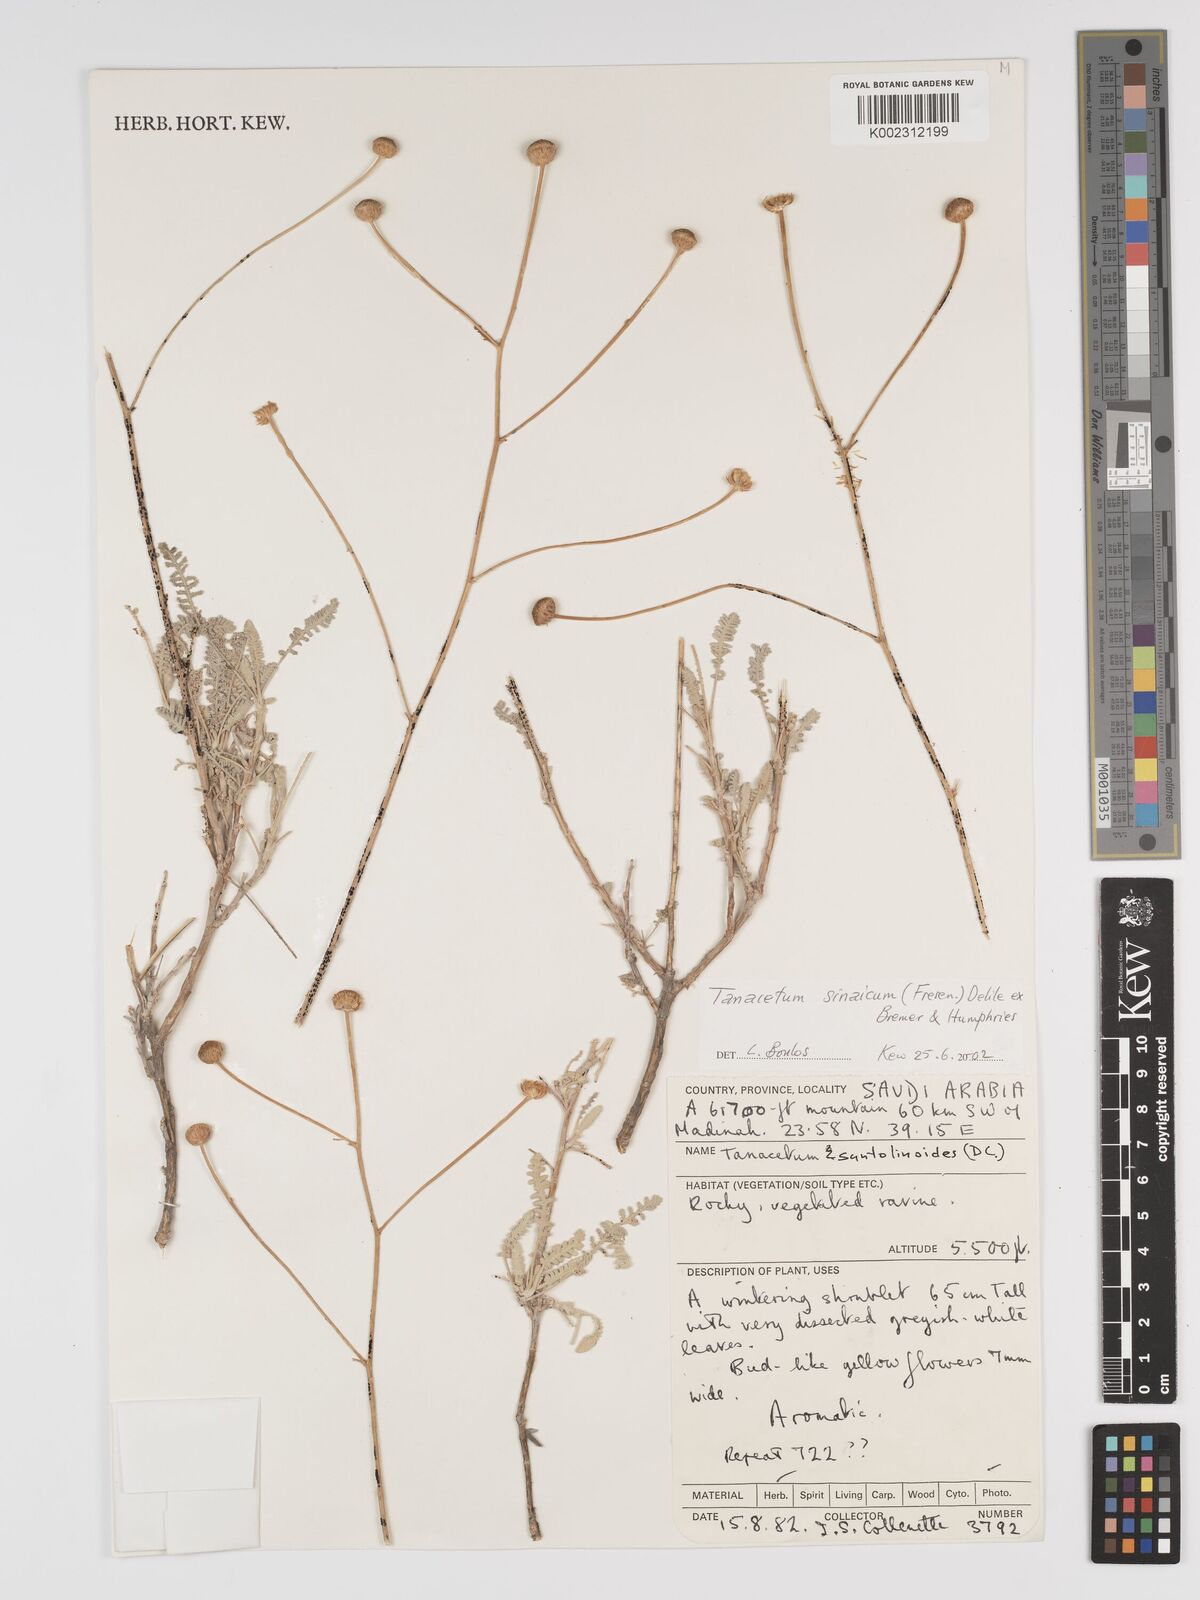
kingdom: Plantae
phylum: Tracheophyta
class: Magnoliopsida
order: Asterales
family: Asteraceae
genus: Tanacetum
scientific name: Tanacetum sinaicum
